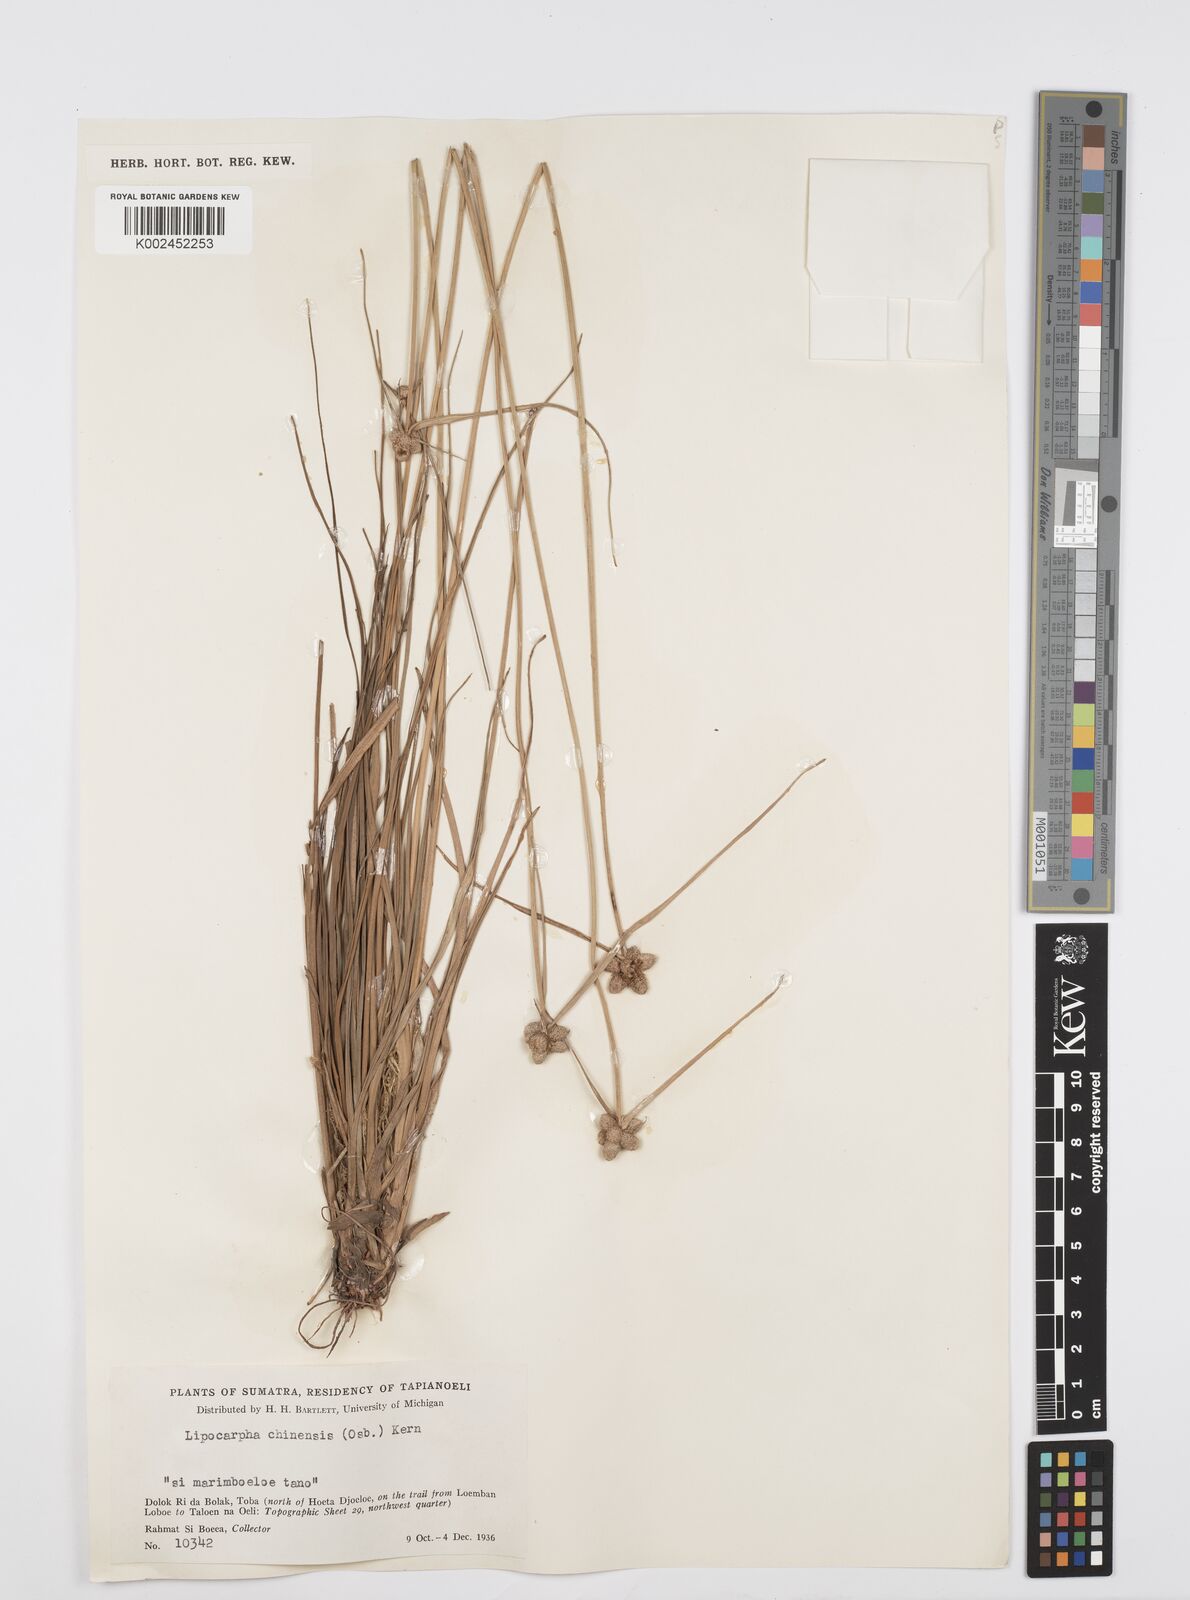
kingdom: Plantae
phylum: Tracheophyta
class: Liliopsida
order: Poales
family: Cyperaceae
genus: Cyperus
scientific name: Cyperus
